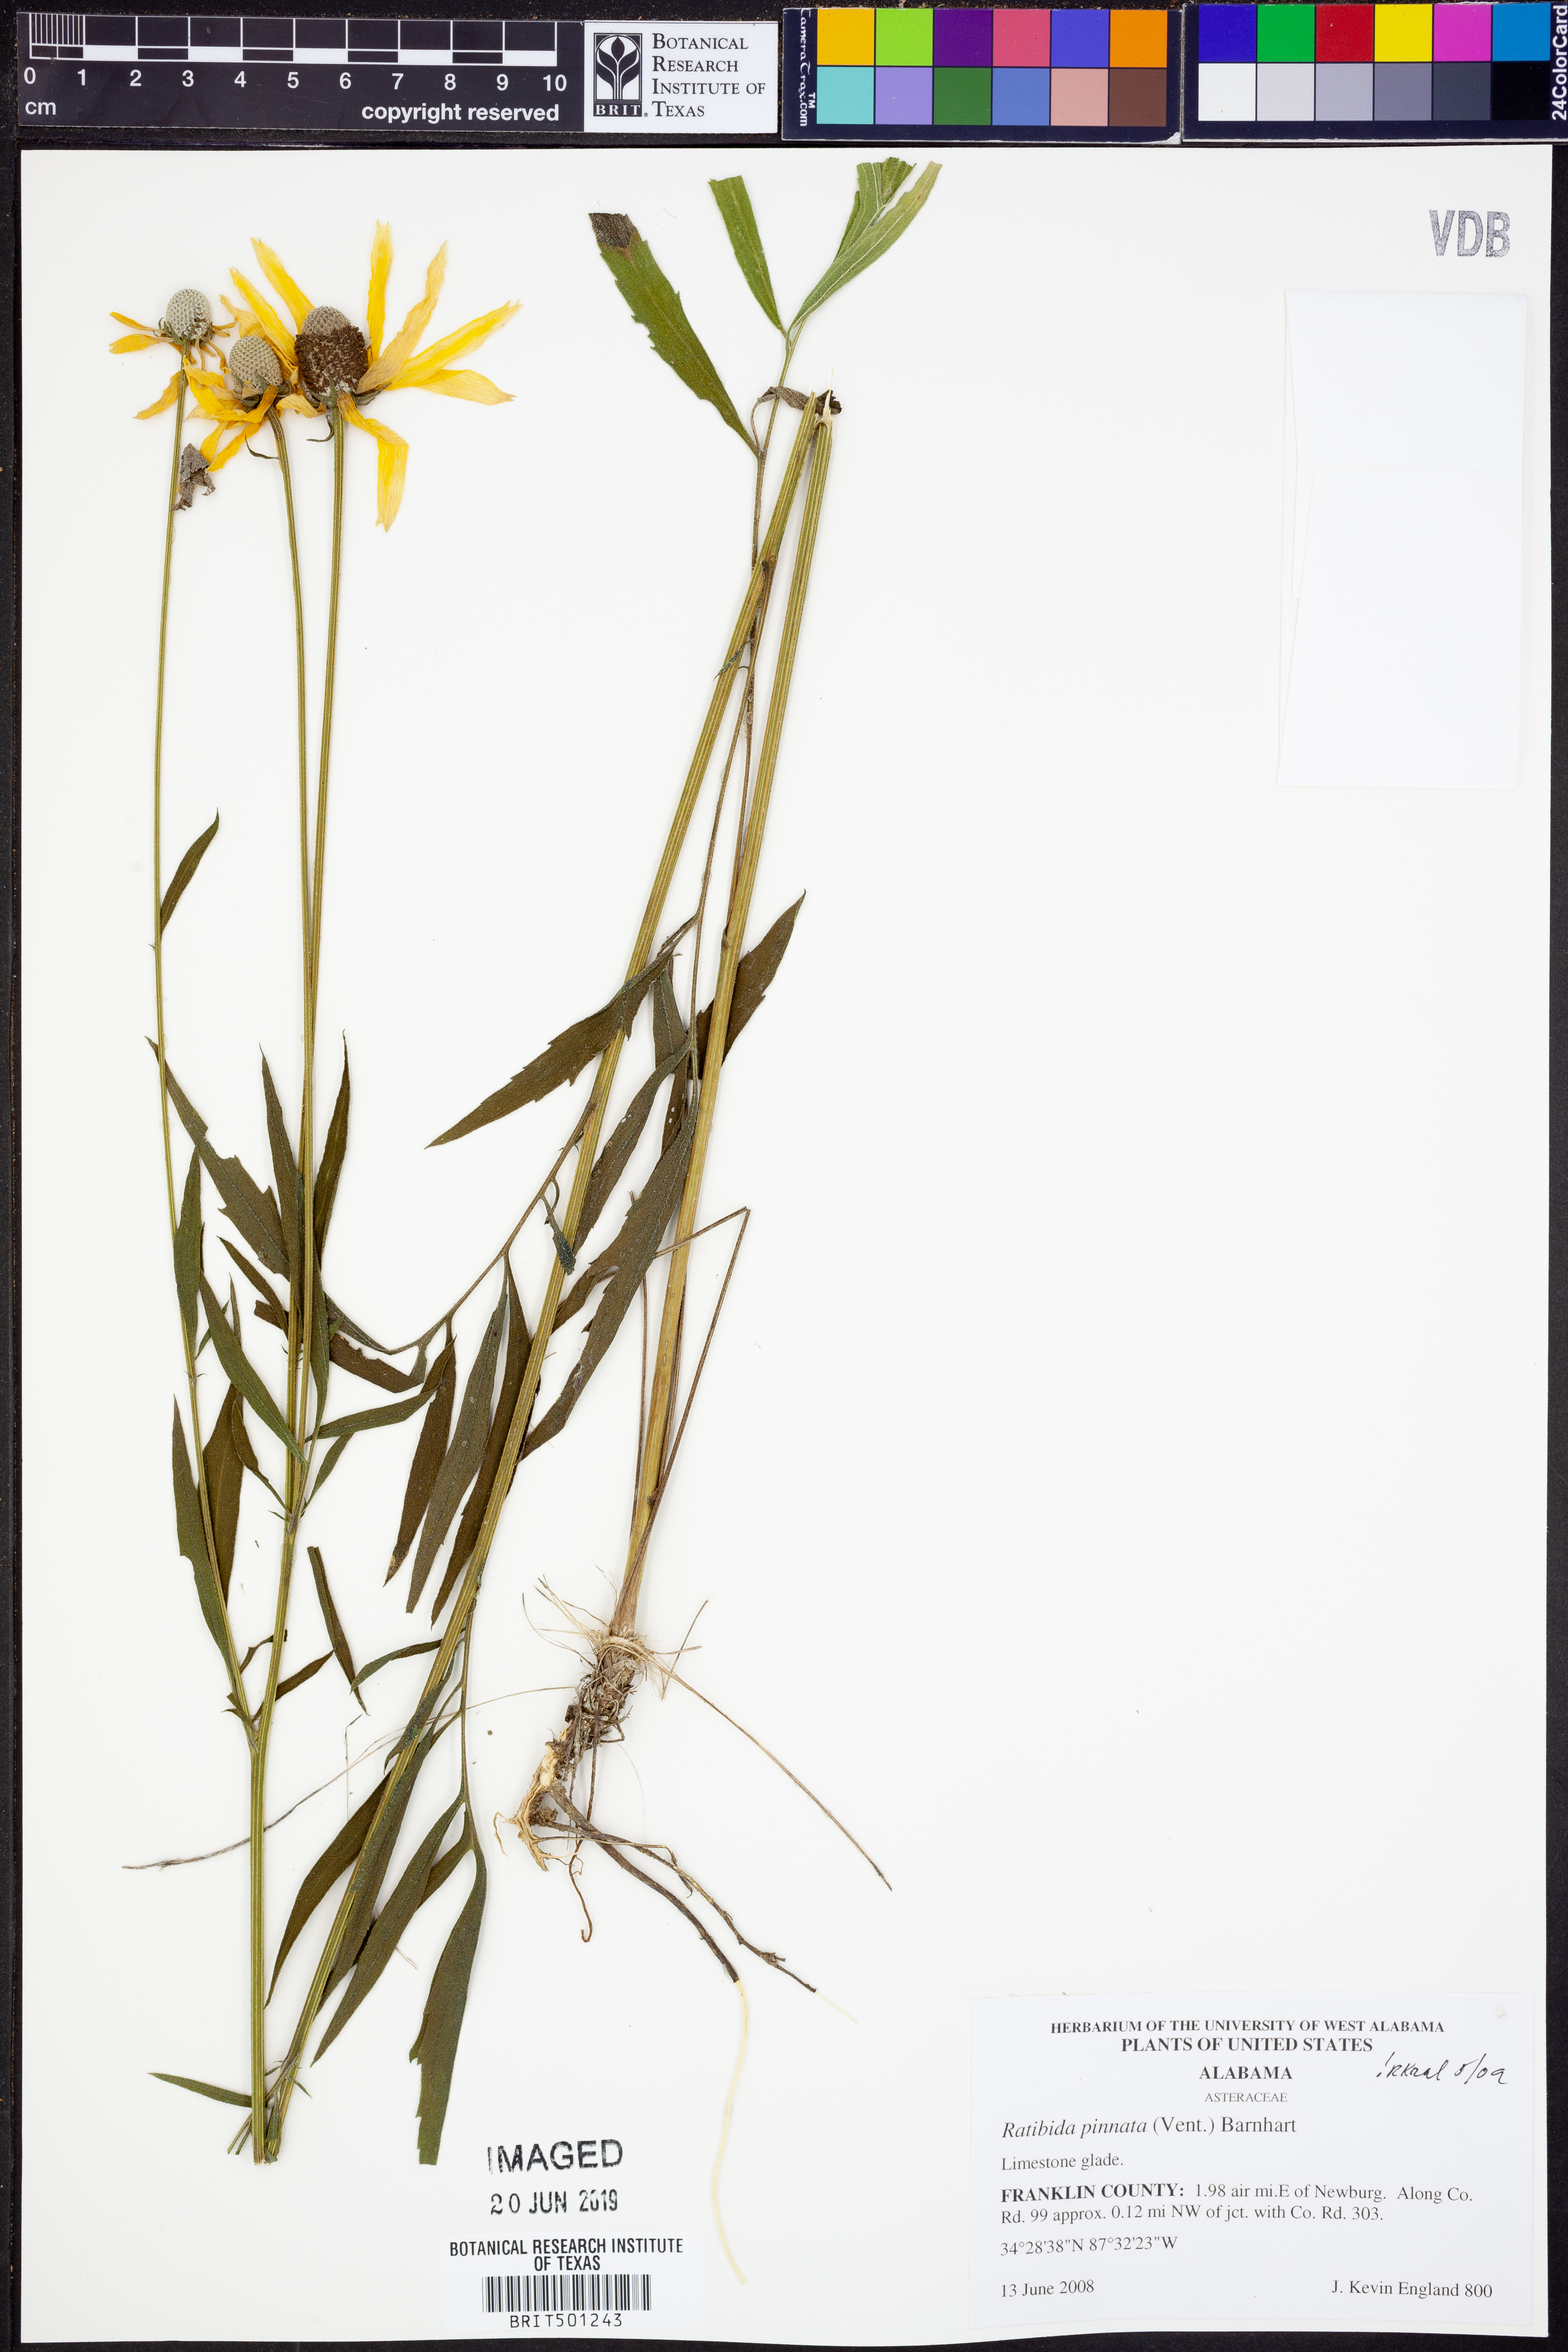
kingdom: Plantae
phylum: Tracheophyta
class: Magnoliopsida
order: Asterales
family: Asteraceae
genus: Ratibida
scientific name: Ratibida pinnata
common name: Drooping prairie-coneflower
